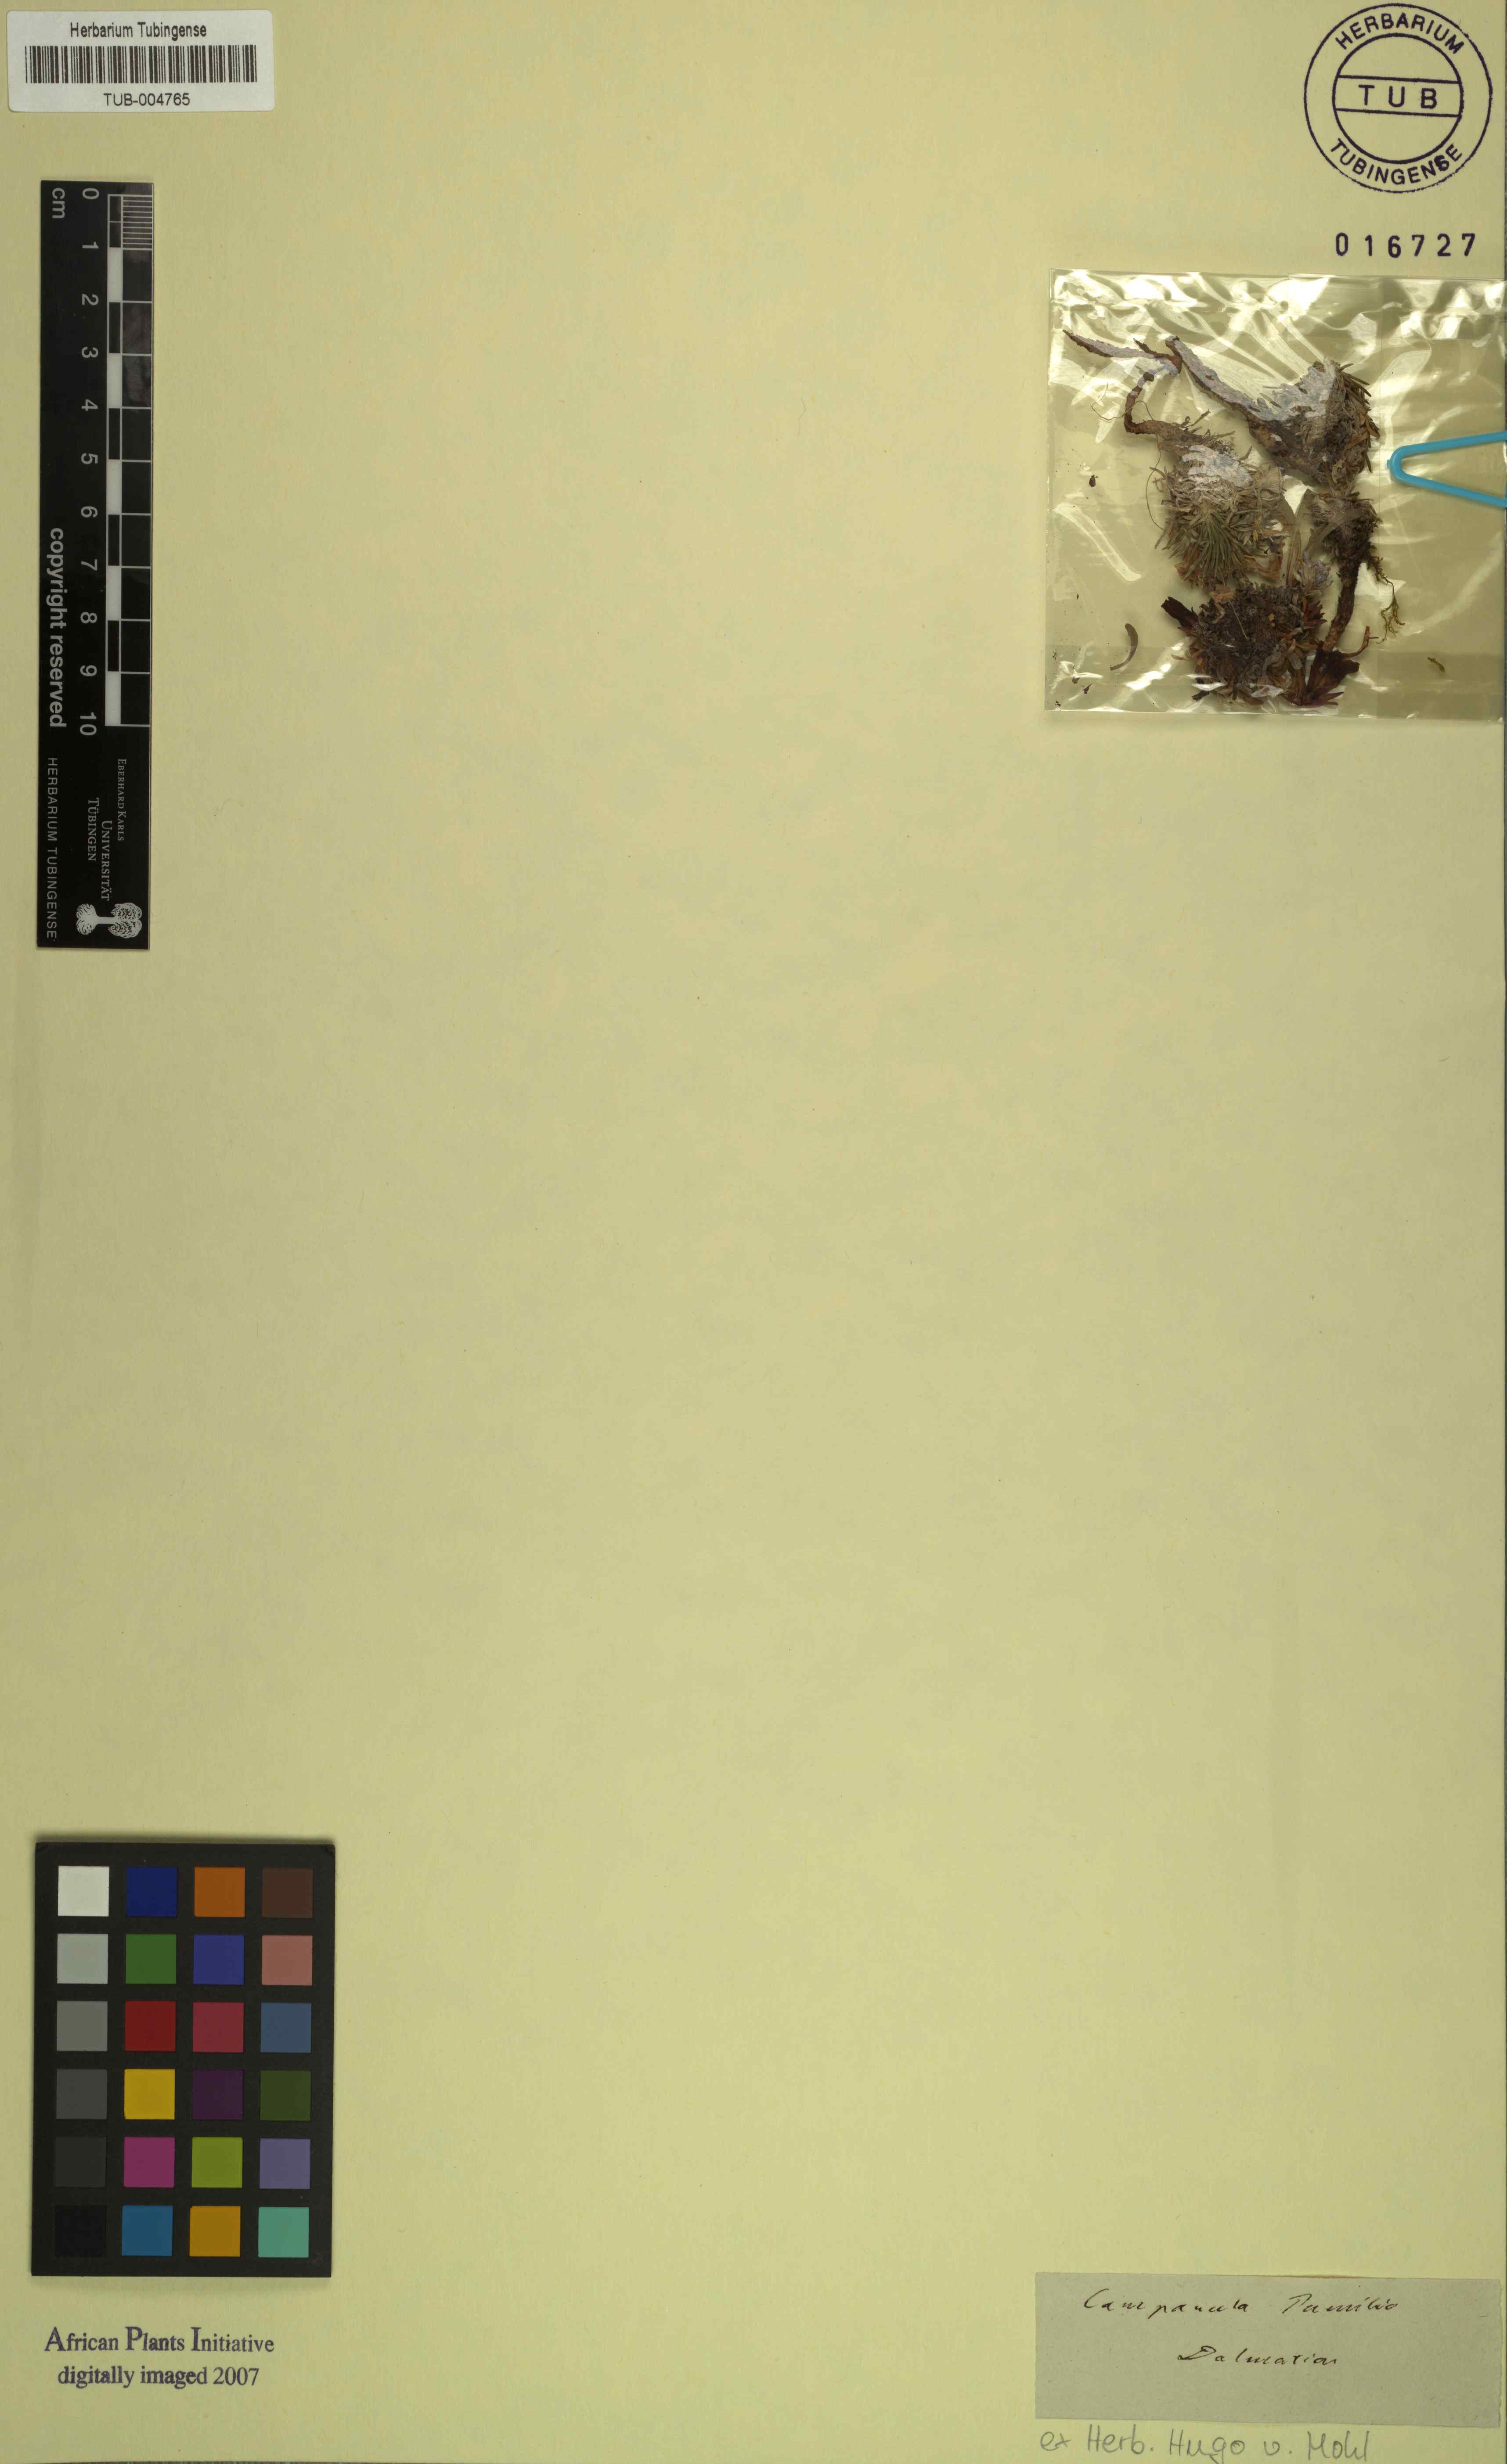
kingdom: Plantae
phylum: Tracheophyta
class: Magnoliopsida
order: Asterales
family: Campanulaceae
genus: Edraianthus
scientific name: Edraianthus pumilio
